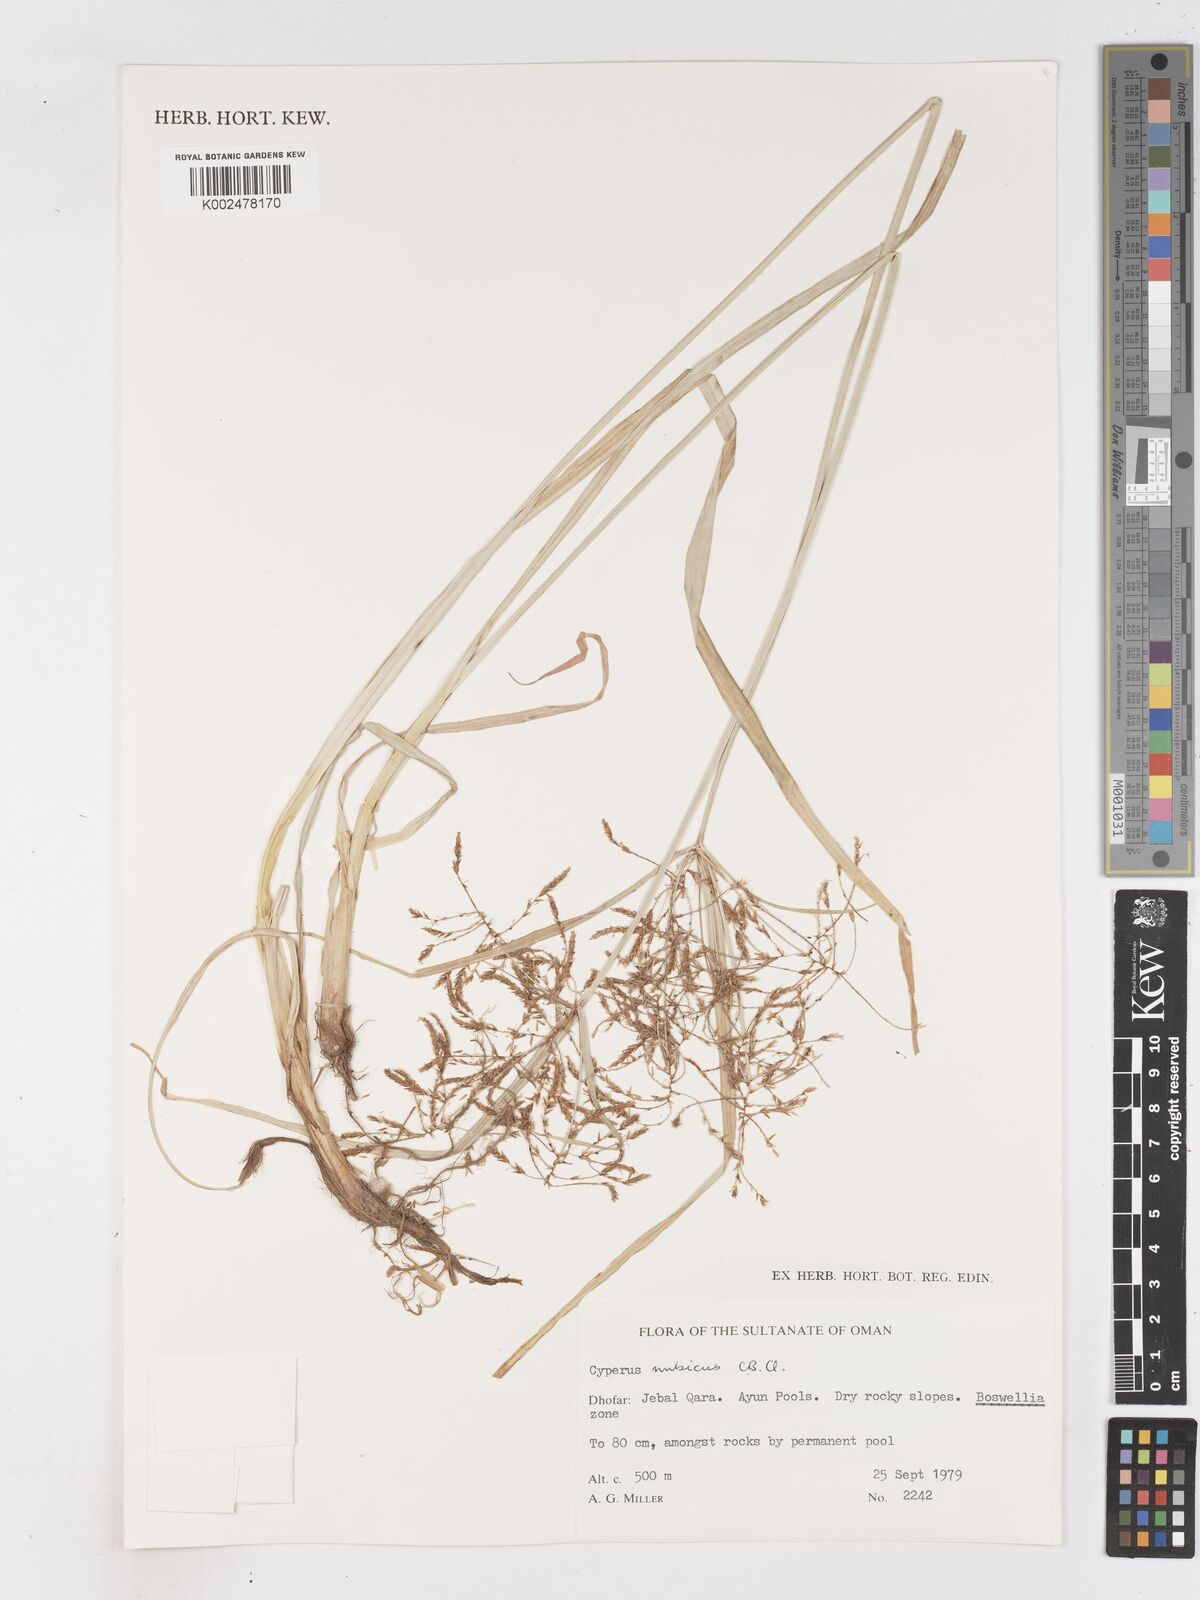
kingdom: Plantae
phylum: Tracheophyta
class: Liliopsida
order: Poales
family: Cyperaceae
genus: Cyperus
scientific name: Cyperus nubicus
